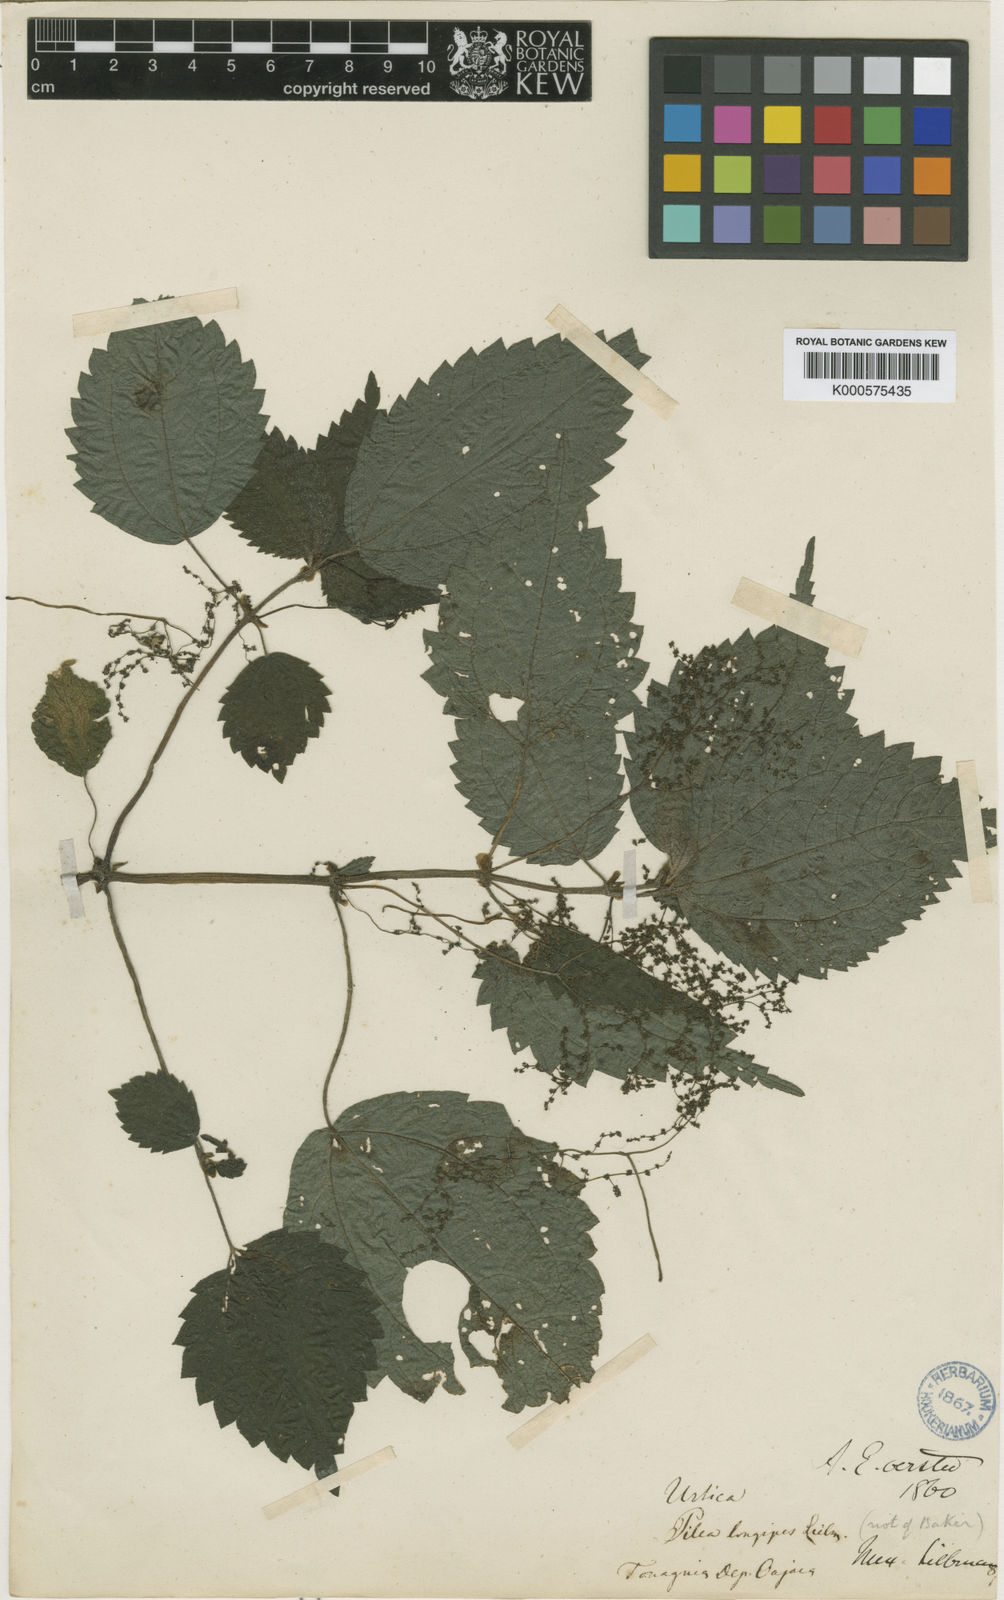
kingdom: Plantae
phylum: Tracheophyta
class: Magnoliopsida
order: Rosales
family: Urticaceae
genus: Pilea
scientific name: Pilea acuminata
